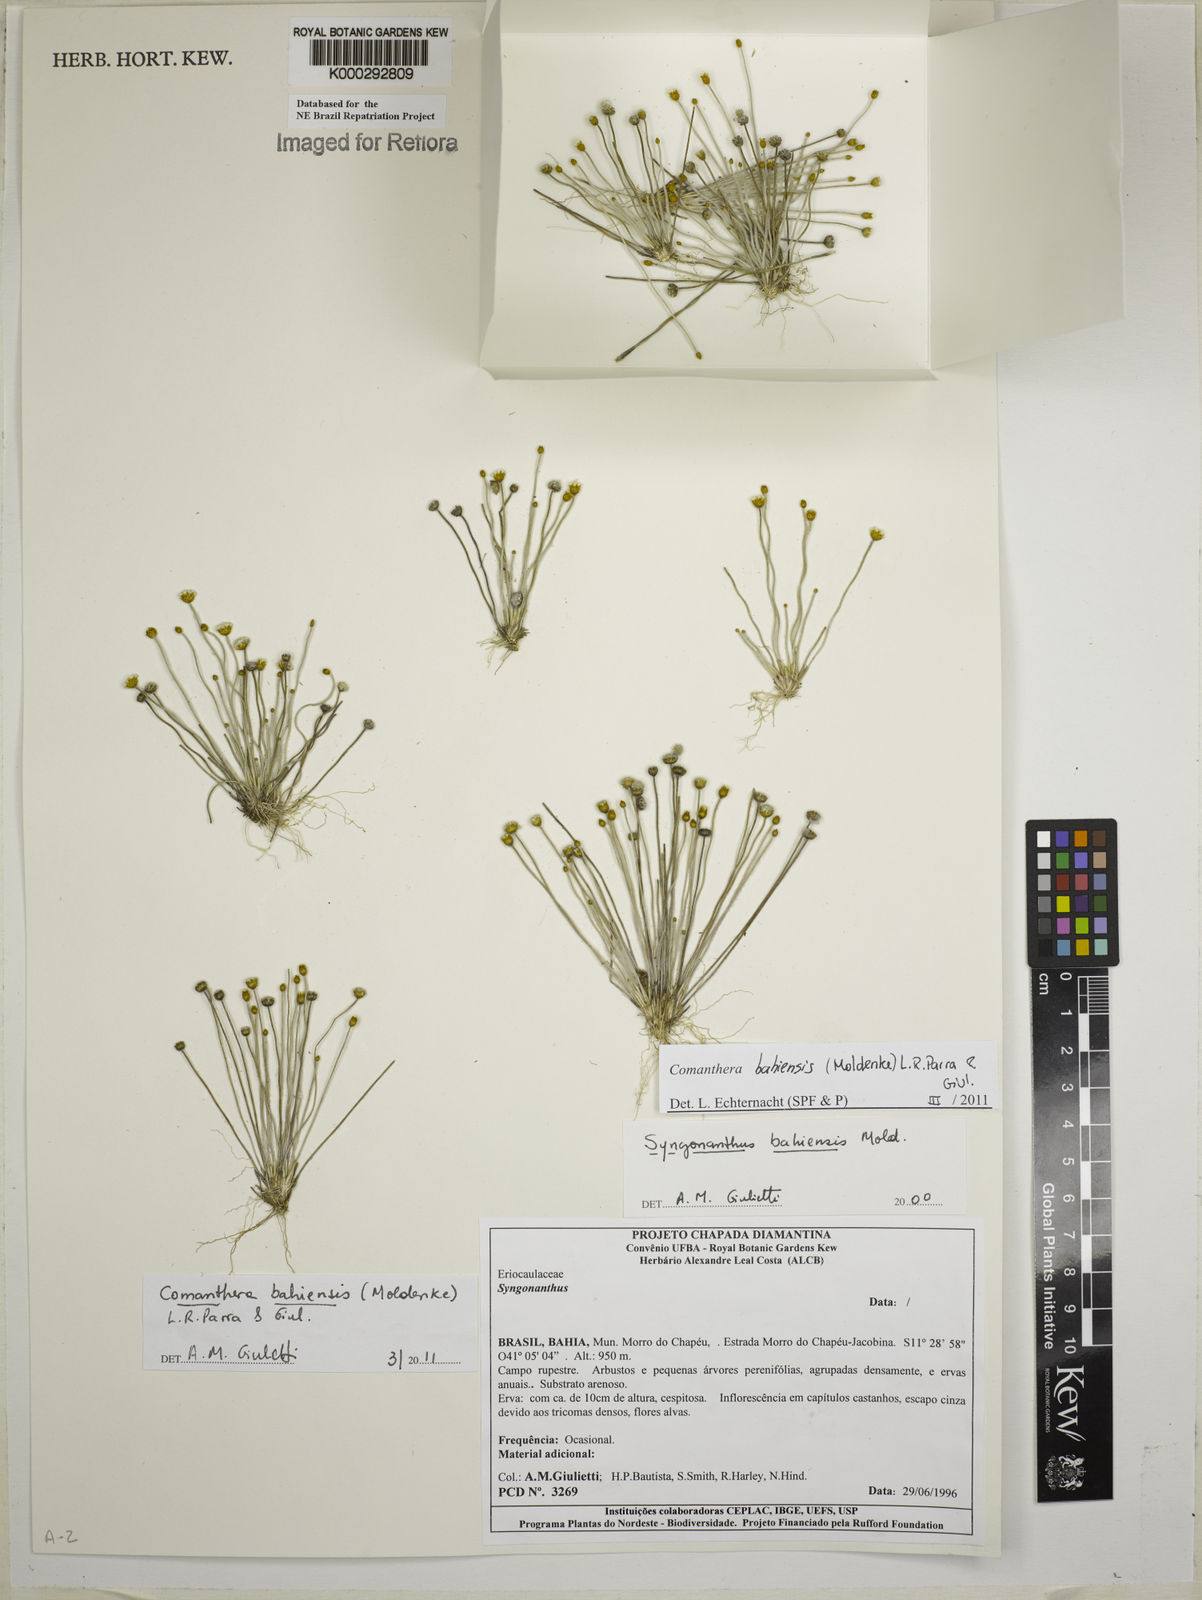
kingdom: Plantae
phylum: Tracheophyta
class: Liliopsida
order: Poales
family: Eriocaulaceae
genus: Comanthera
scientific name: Comanthera bahiensis
